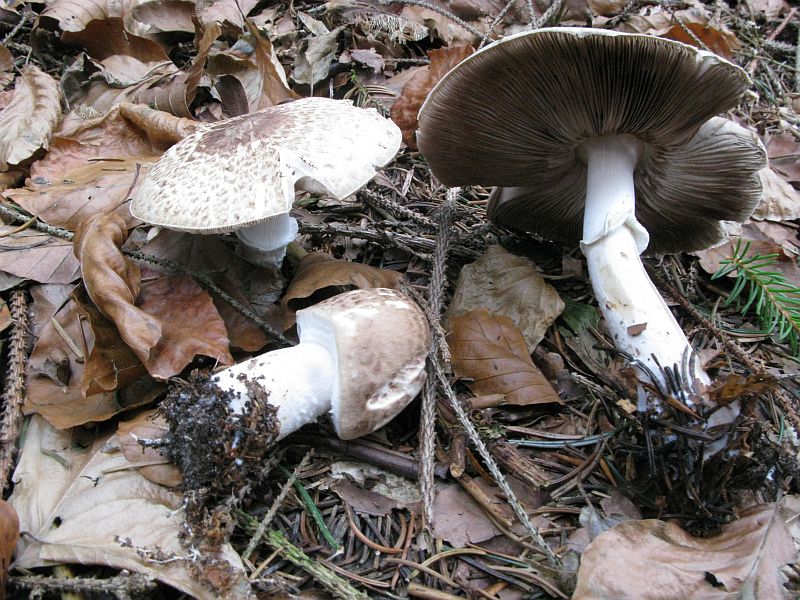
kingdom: Fungi
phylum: Basidiomycota
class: Agaricomycetes
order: Agaricales
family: Agaricaceae
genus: Agaricus
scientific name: Agaricus impudicus
